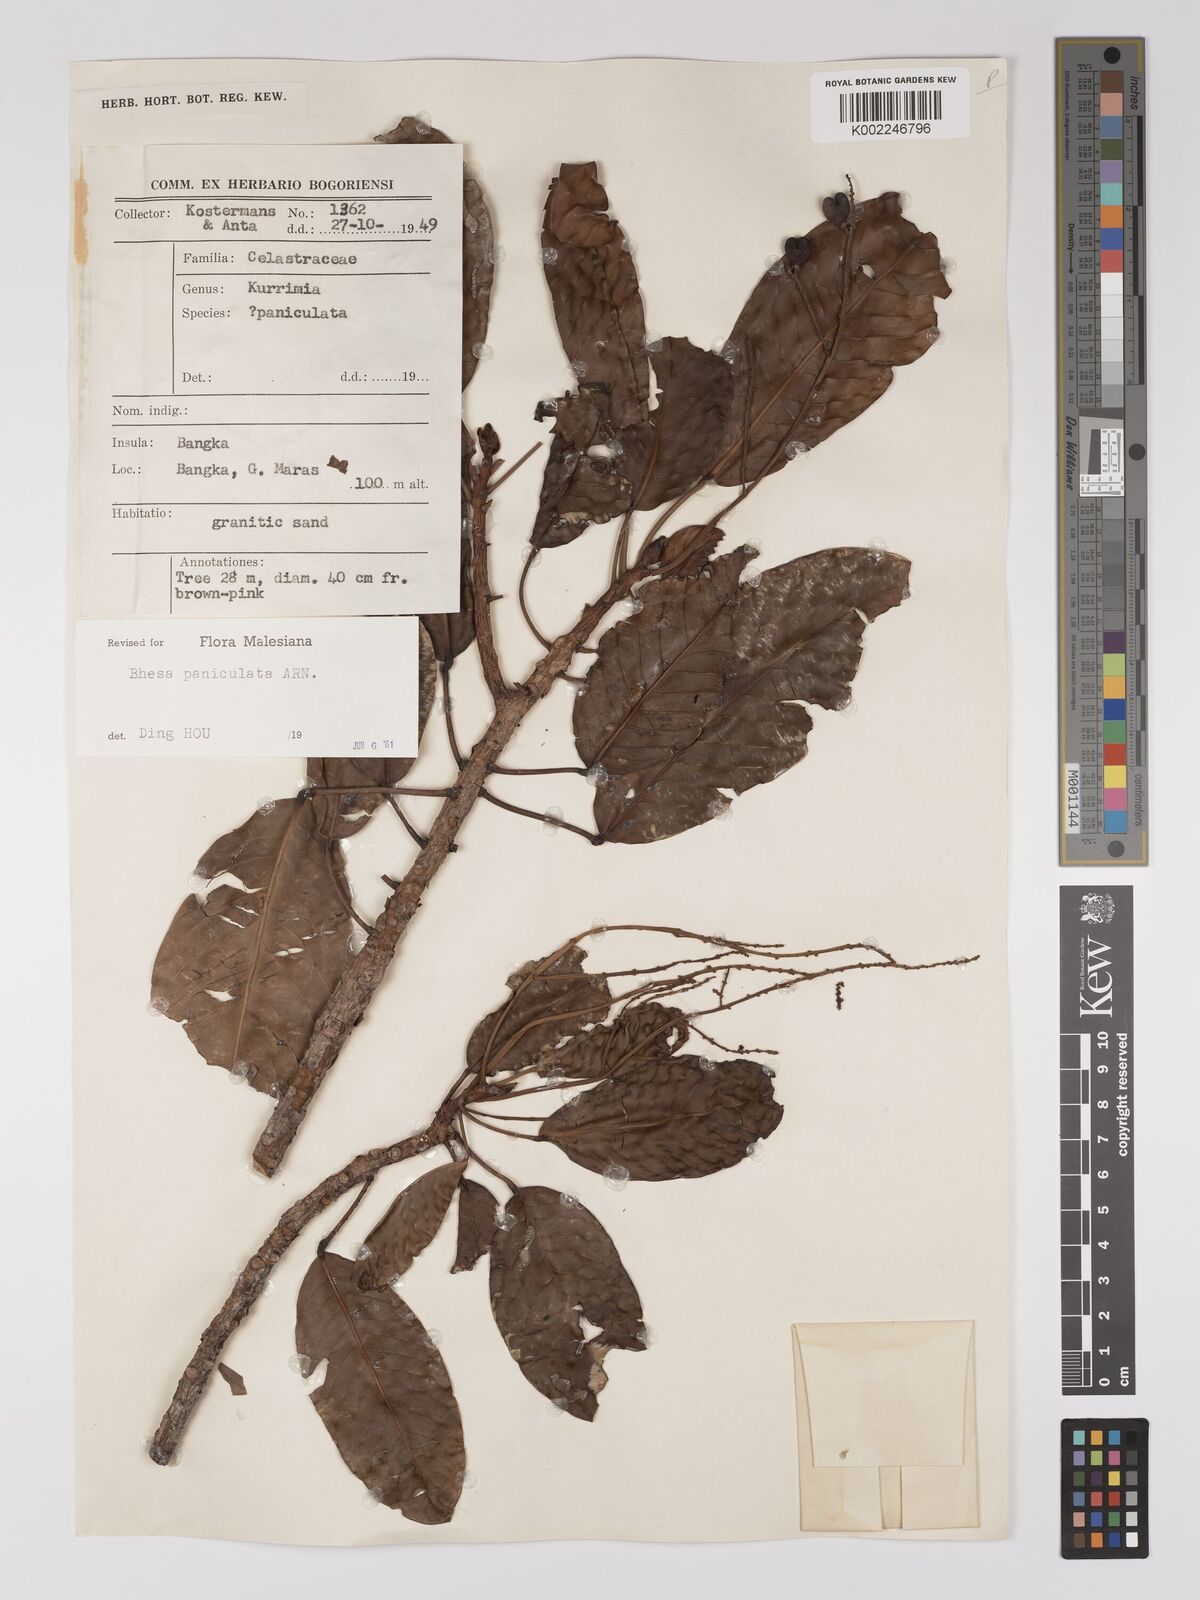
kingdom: Plantae
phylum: Tracheophyta
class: Magnoliopsida
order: Malpighiales
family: Centroplacaceae
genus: Bhesa
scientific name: Bhesa paniculata
